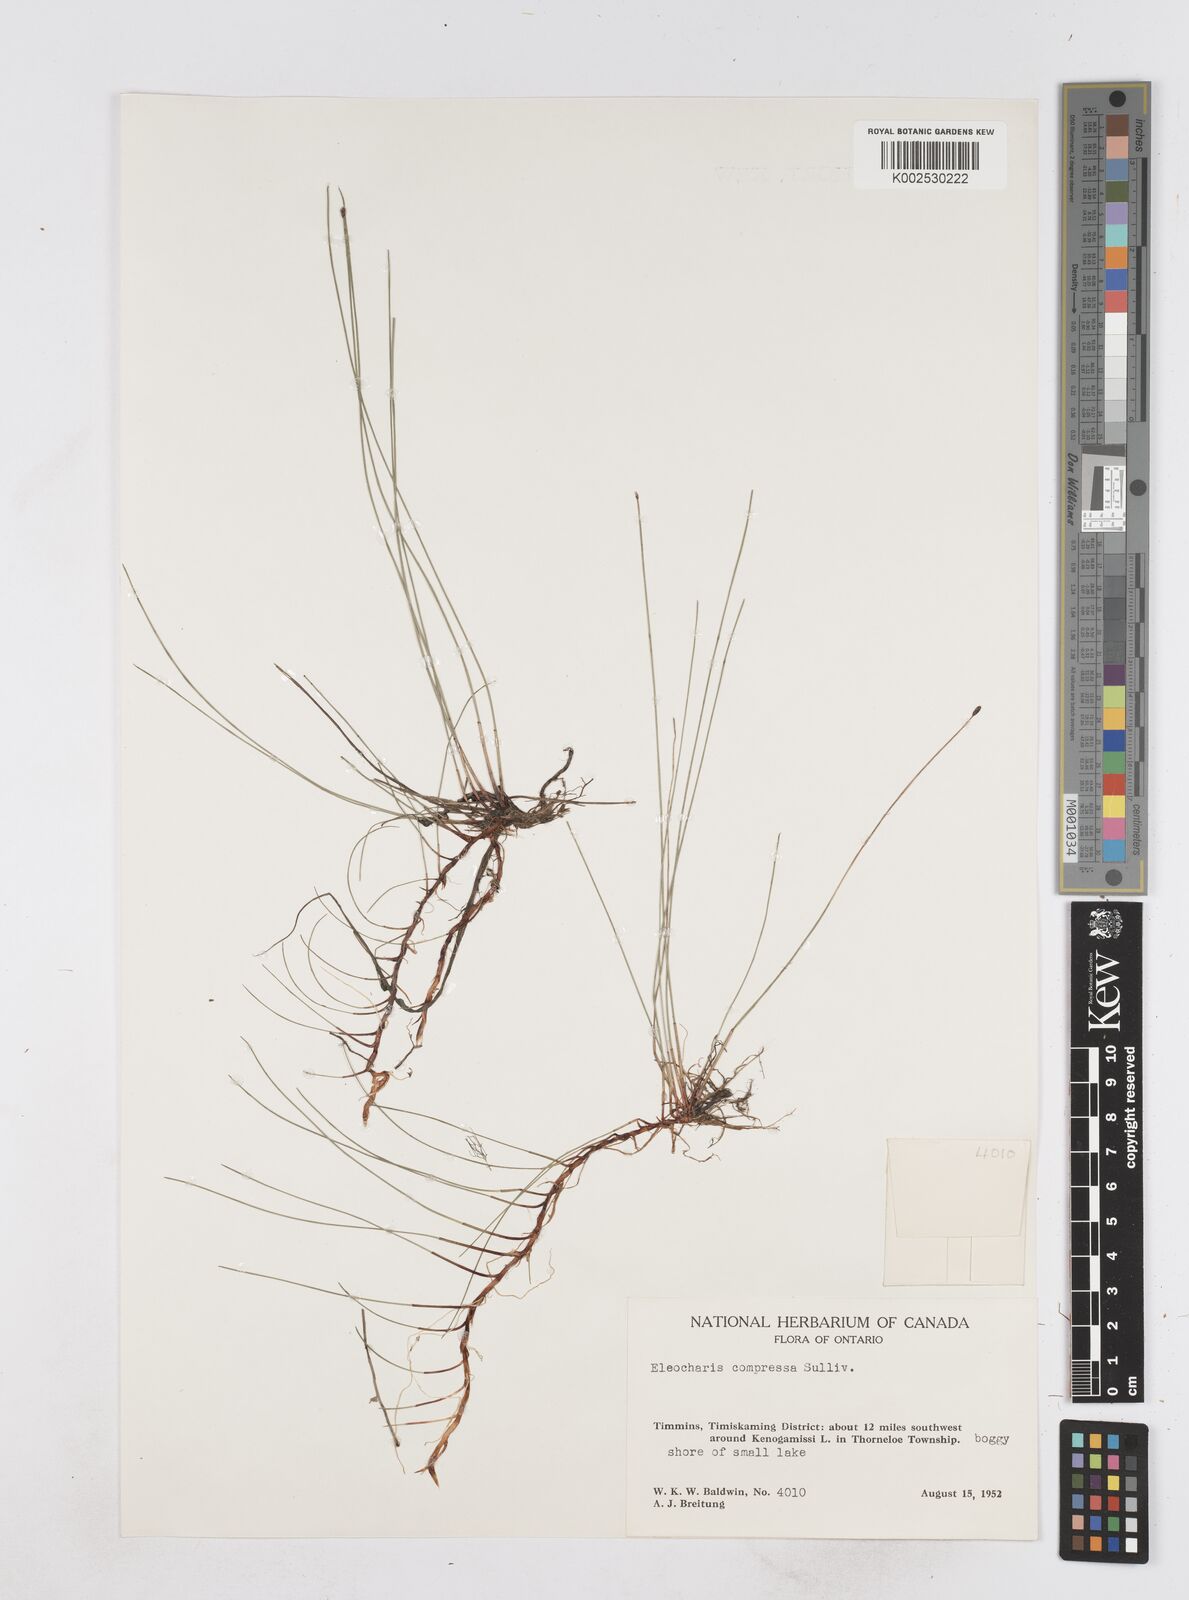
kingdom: Plantae
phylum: Tracheophyta
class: Liliopsida
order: Poales
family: Cyperaceae
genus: Eleocharis
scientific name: Eleocharis compressa
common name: Flat-stem spike-rush
